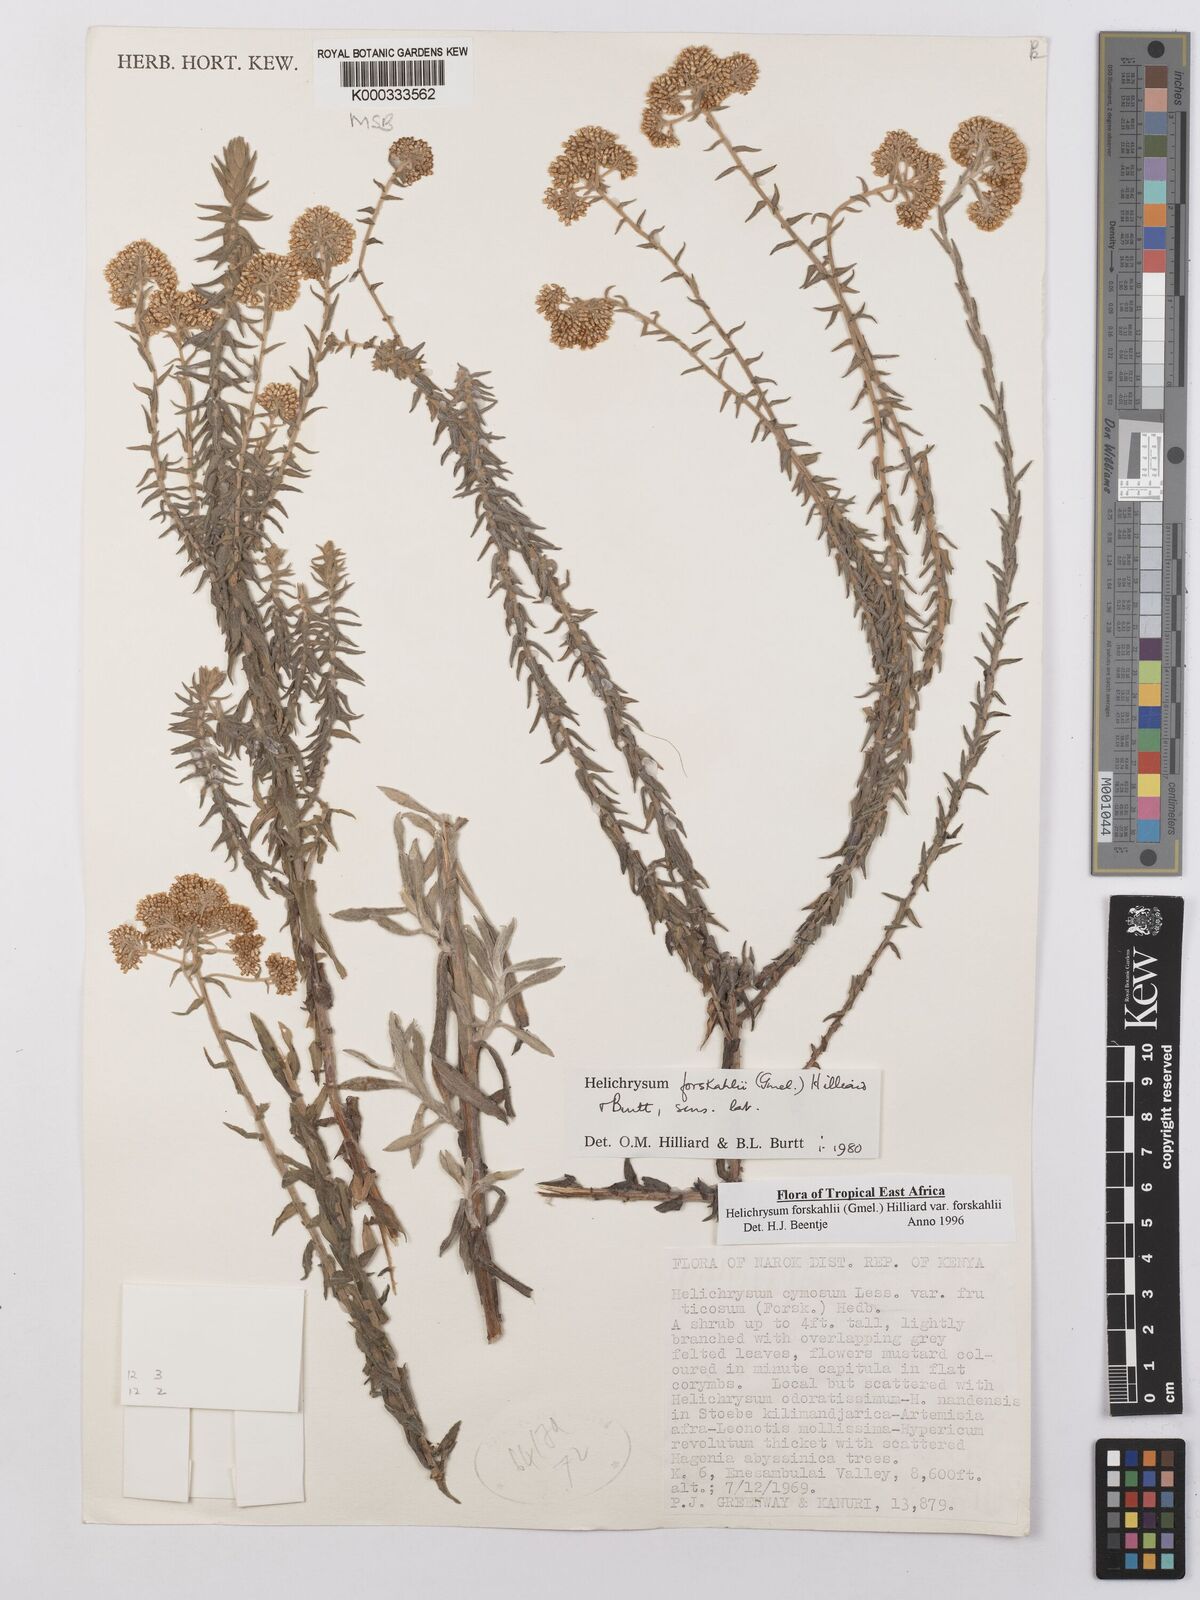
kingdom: Plantae
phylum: Tracheophyta
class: Magnoliopsida
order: Asterales
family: Asteraceae
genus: Helichrysum
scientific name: Helichrysum forskahlii
